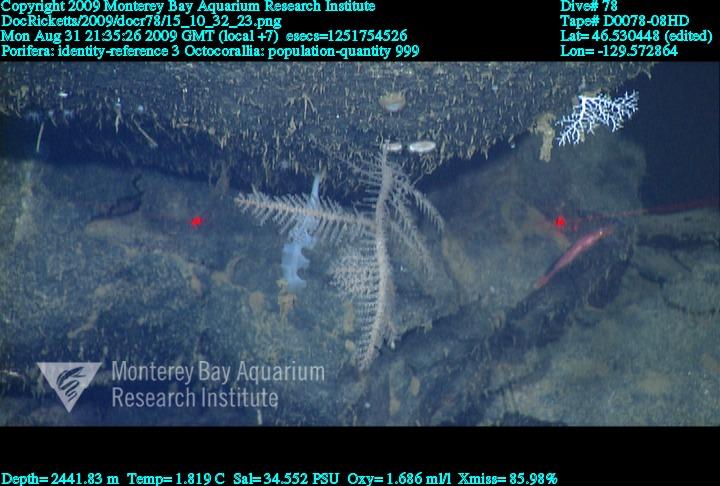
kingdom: Animalia
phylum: Porifera
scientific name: Porifera
